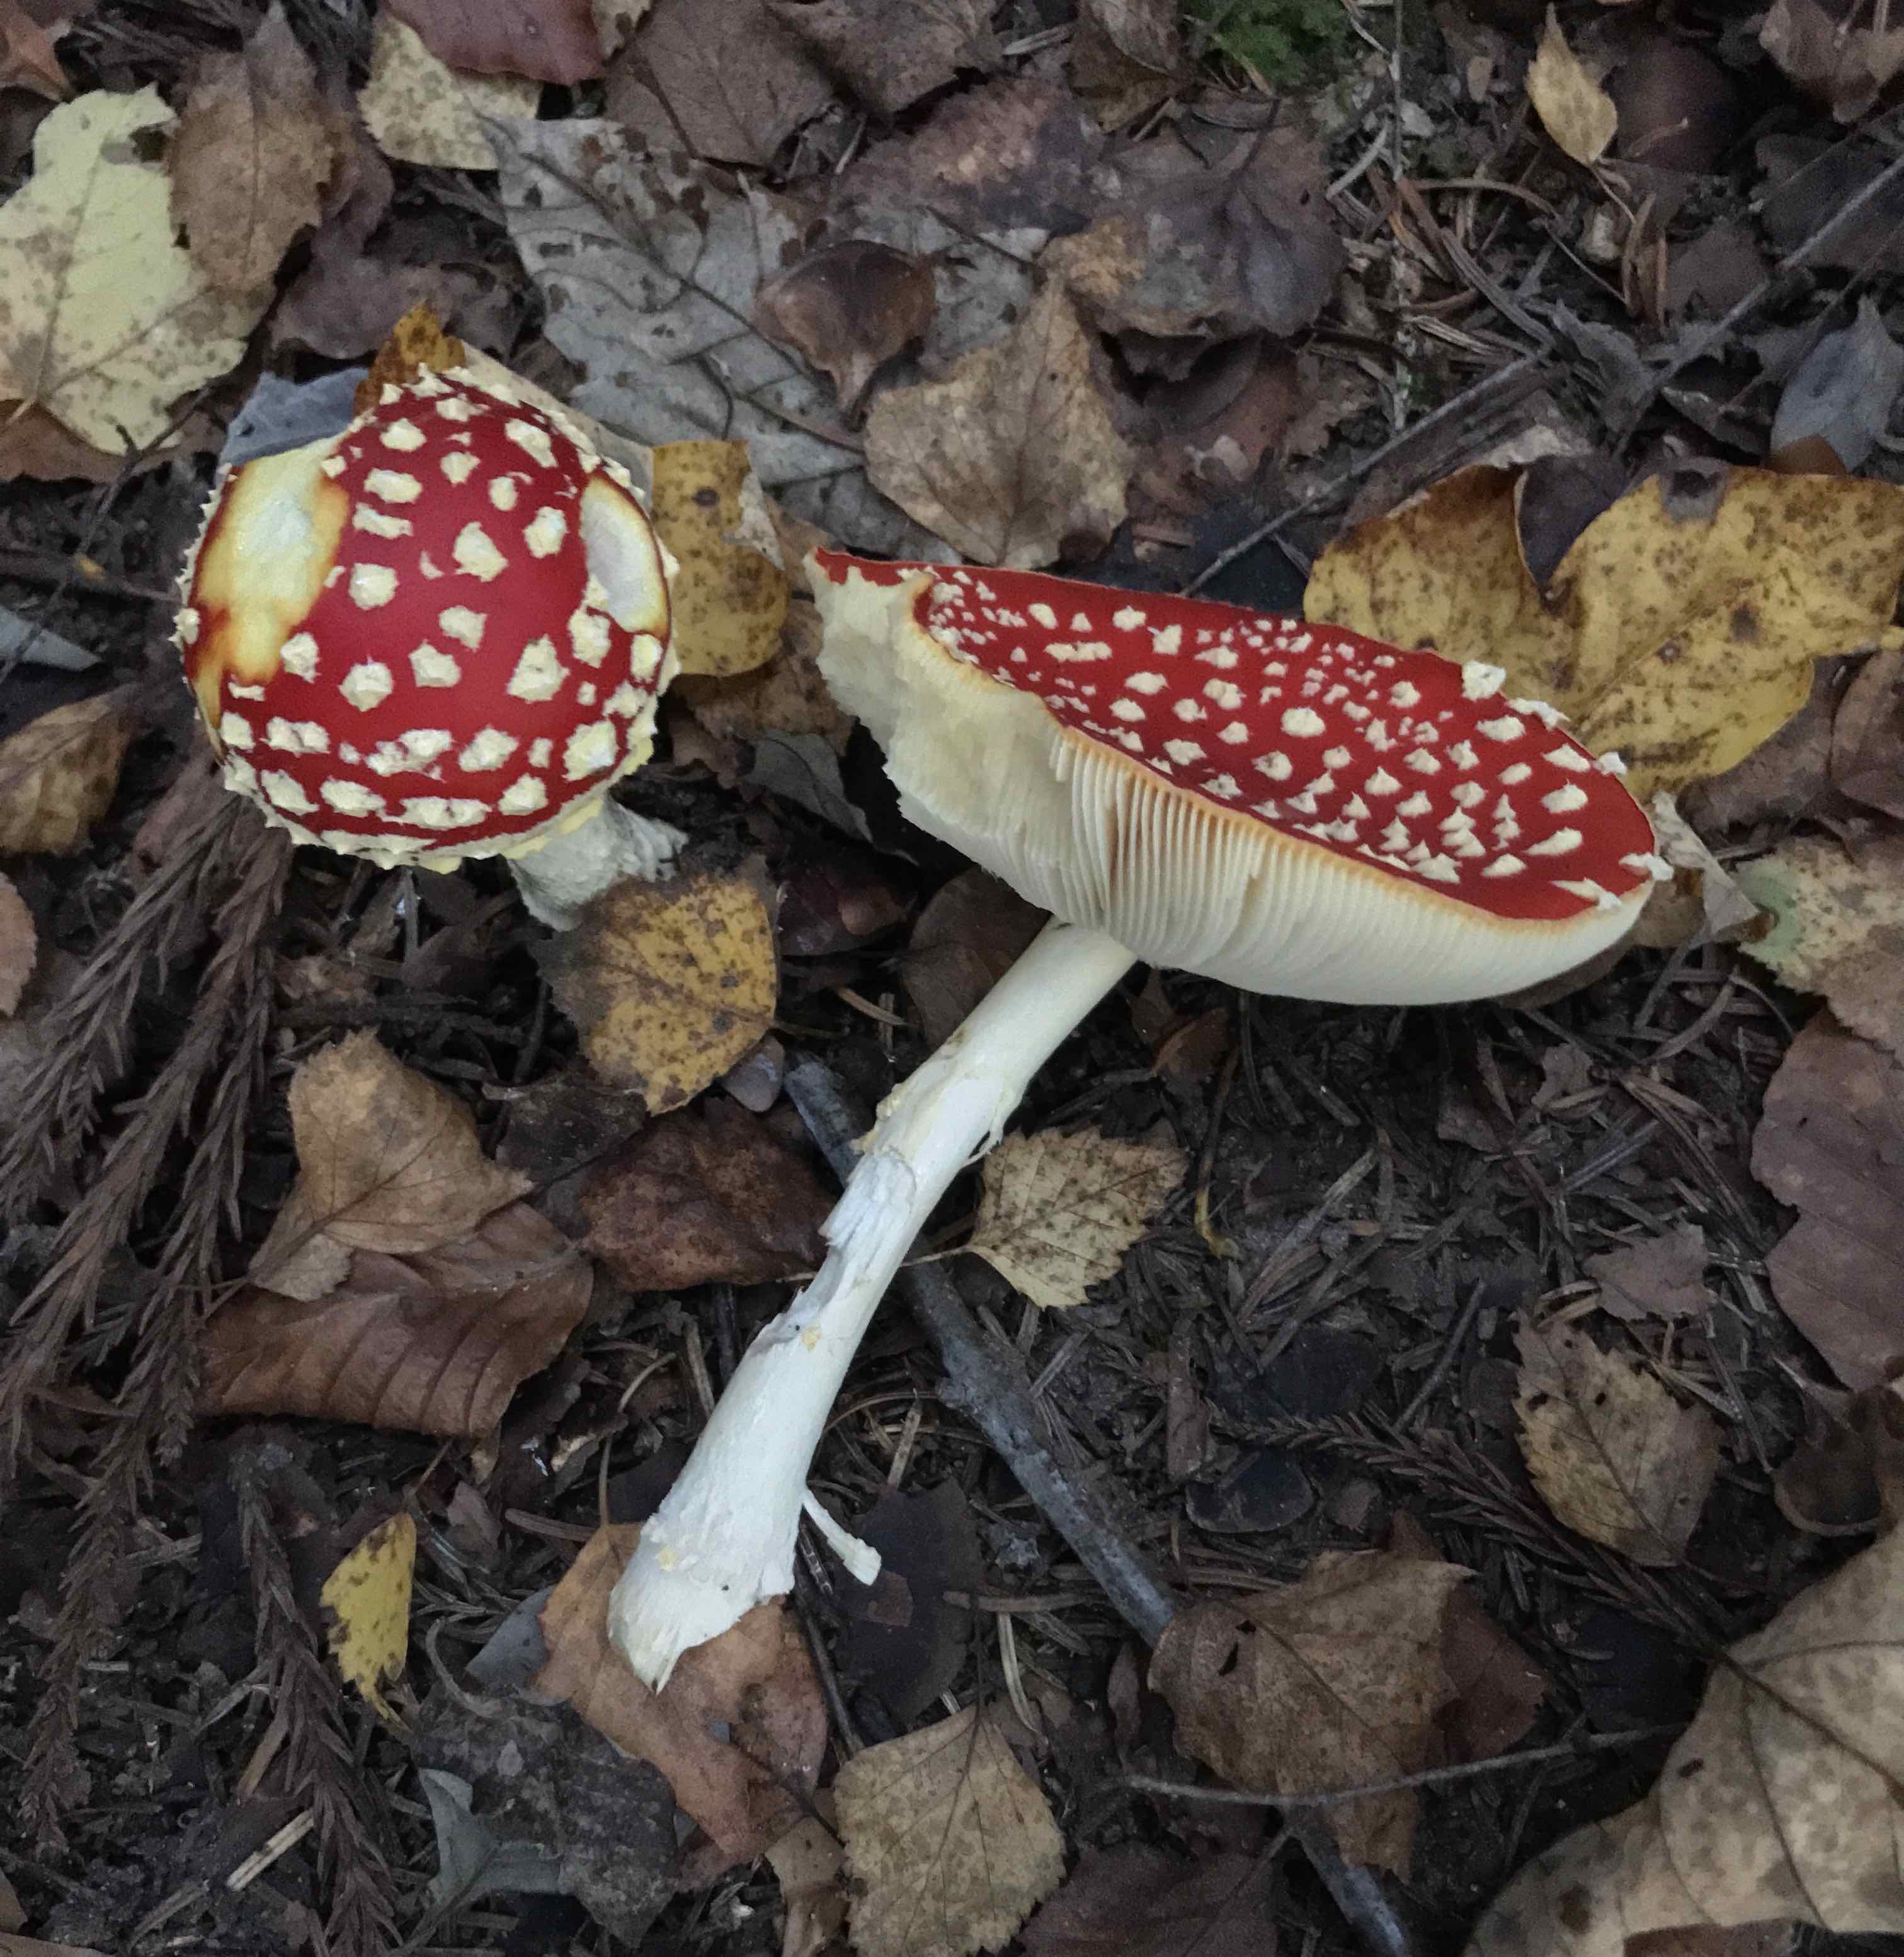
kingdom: Fungi
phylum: Basidiomycota
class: Agaricomycetes
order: Agaricales
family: Amanitaceae
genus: Amanita
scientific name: Amanita muscaria
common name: rød fluesvamp
